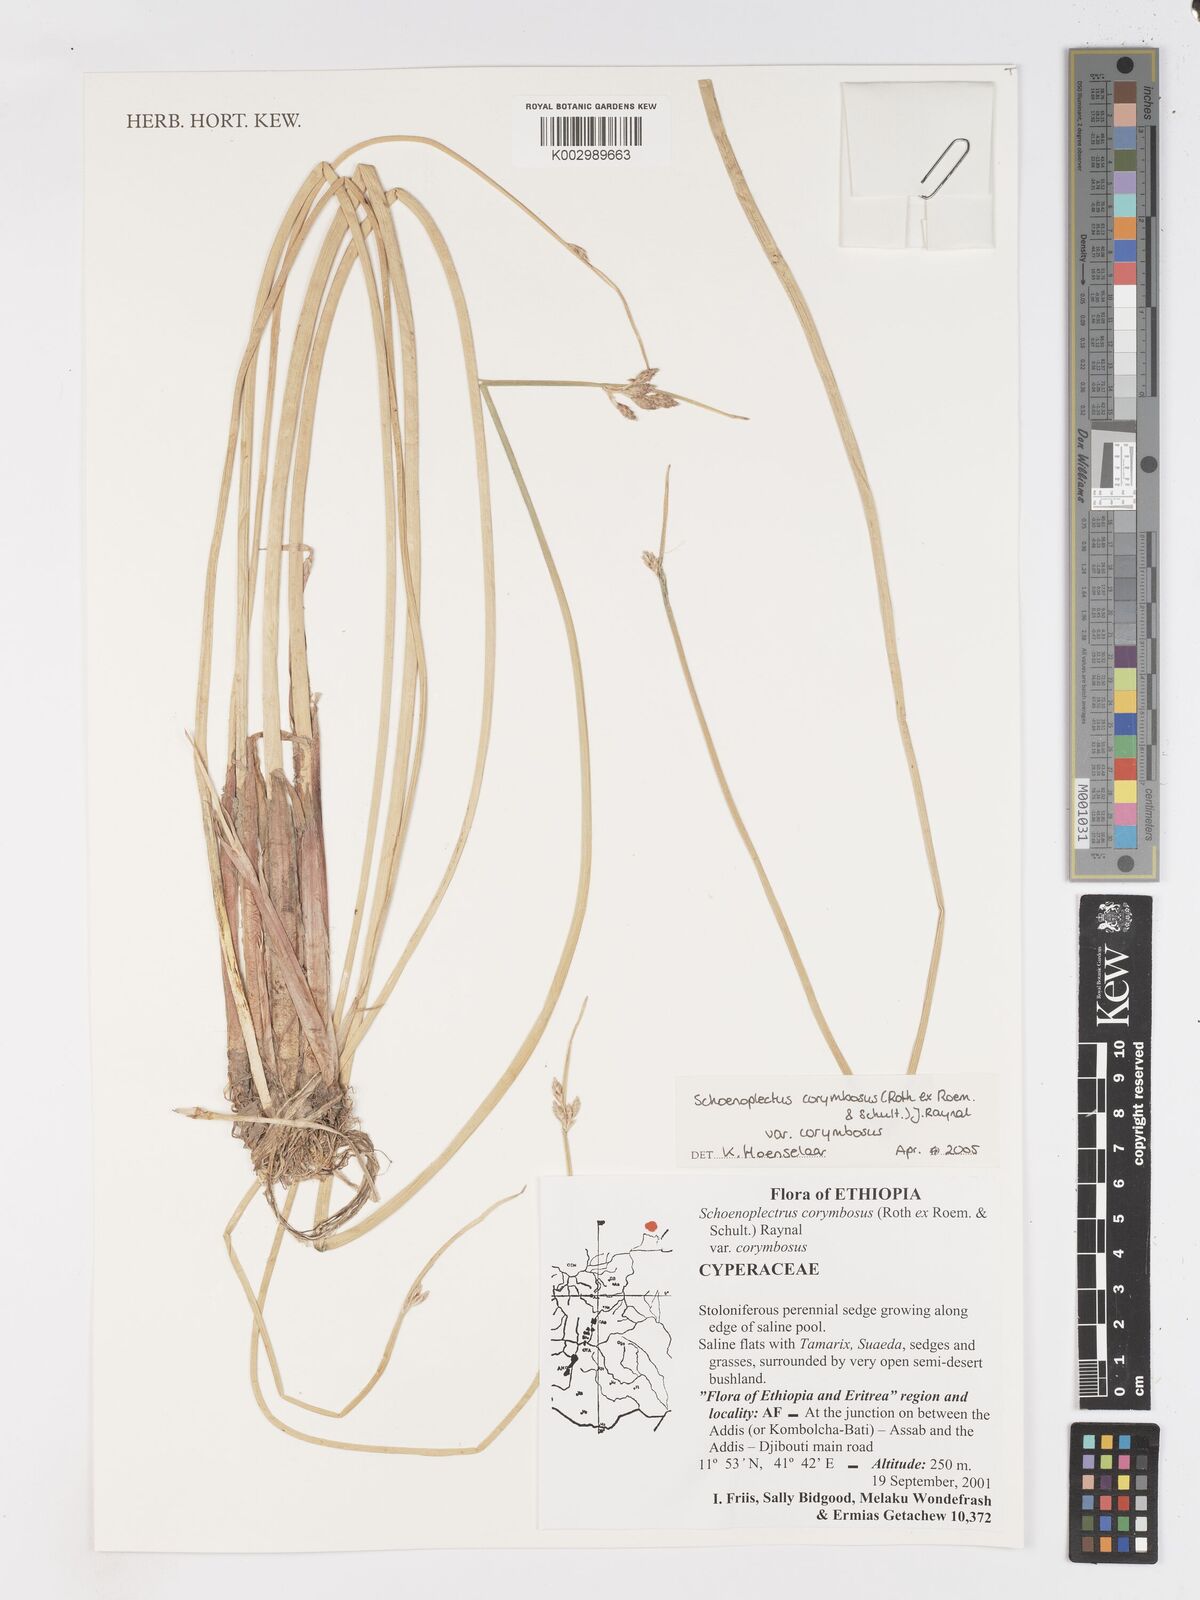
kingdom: Plantae
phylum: Tracheophyta
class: Liliopsida
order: Poales
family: Cyperaceae
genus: Schoenoplectiella
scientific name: Schoenoplectiella corymbosa
